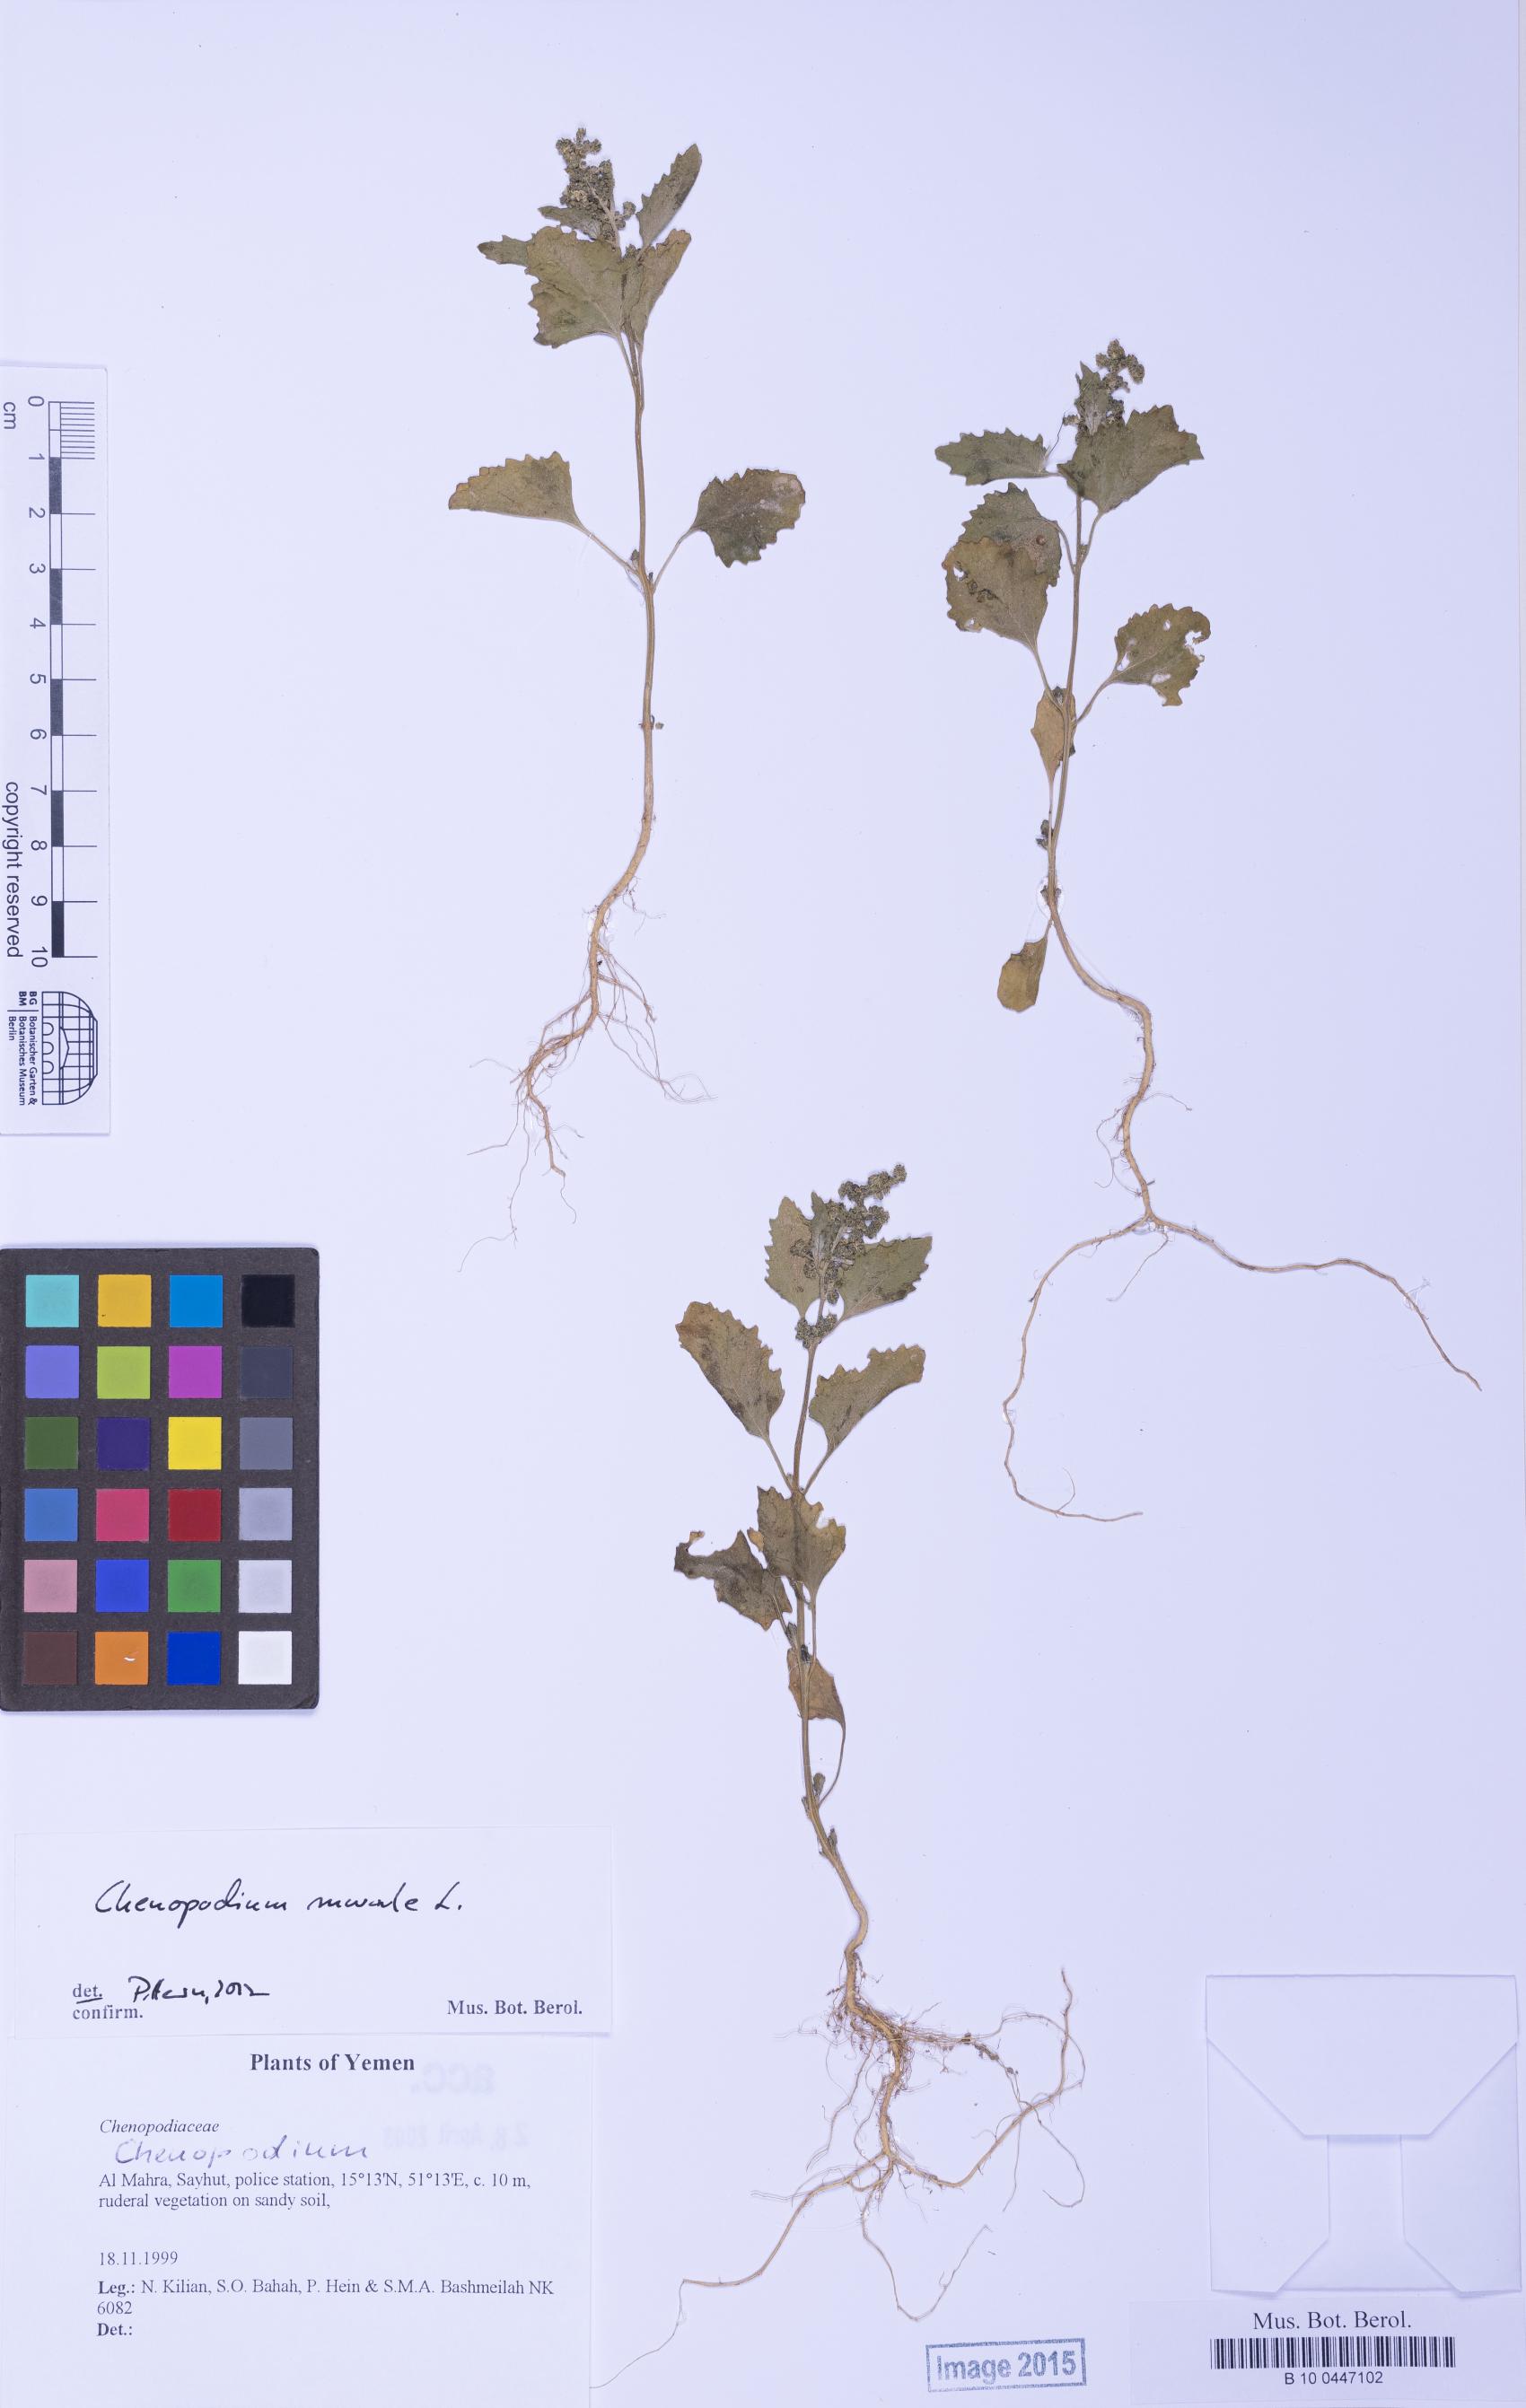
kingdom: Plantae
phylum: Tracheophyta
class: Magnoliopsida
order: Caryophyllales
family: Amaranthaceae
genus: Chenopodium
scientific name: Chenopodium
